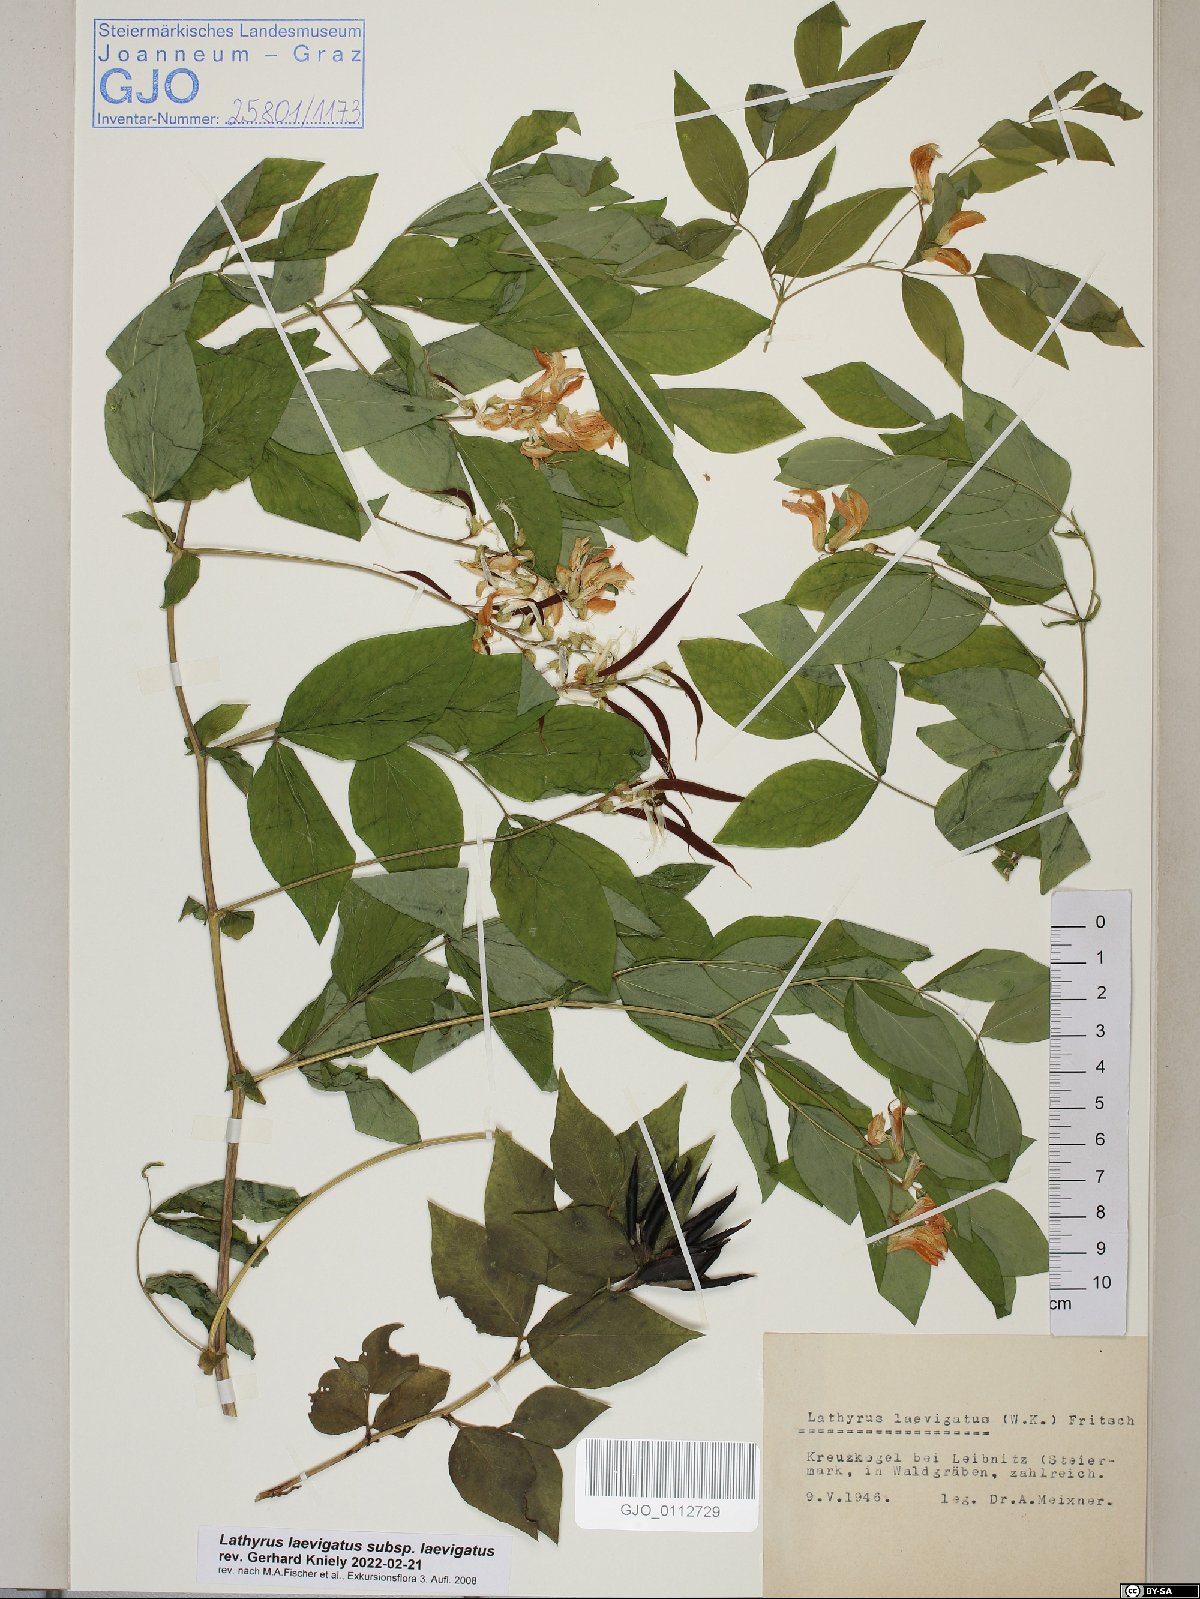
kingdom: Plantae
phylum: Tracheophyta
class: Magnoliopsida
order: Fabales
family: Fabaceae
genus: Lathyrus
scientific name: Lathyrus laevigatus
